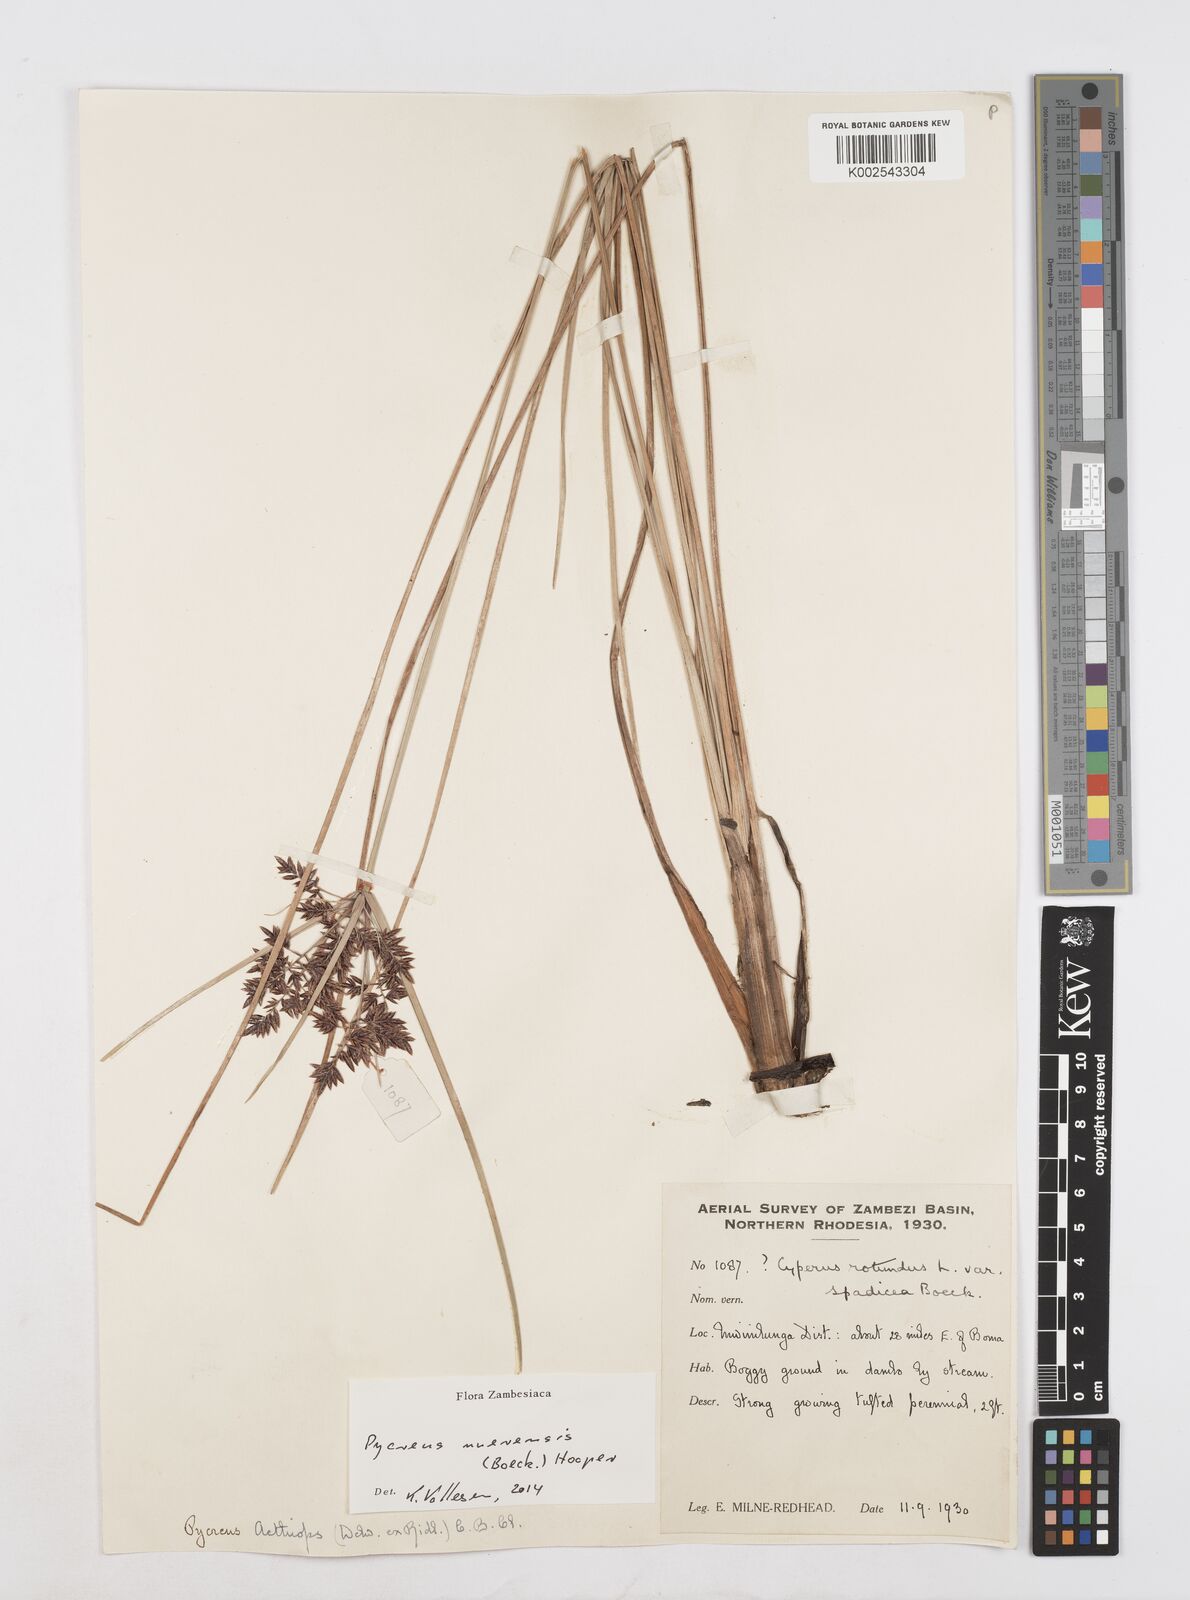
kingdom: Plantae
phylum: Tracheophyta
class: Liliopsida
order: Poales
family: Cyperaceae
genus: Cyperus
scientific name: Cyperus nuerensis
